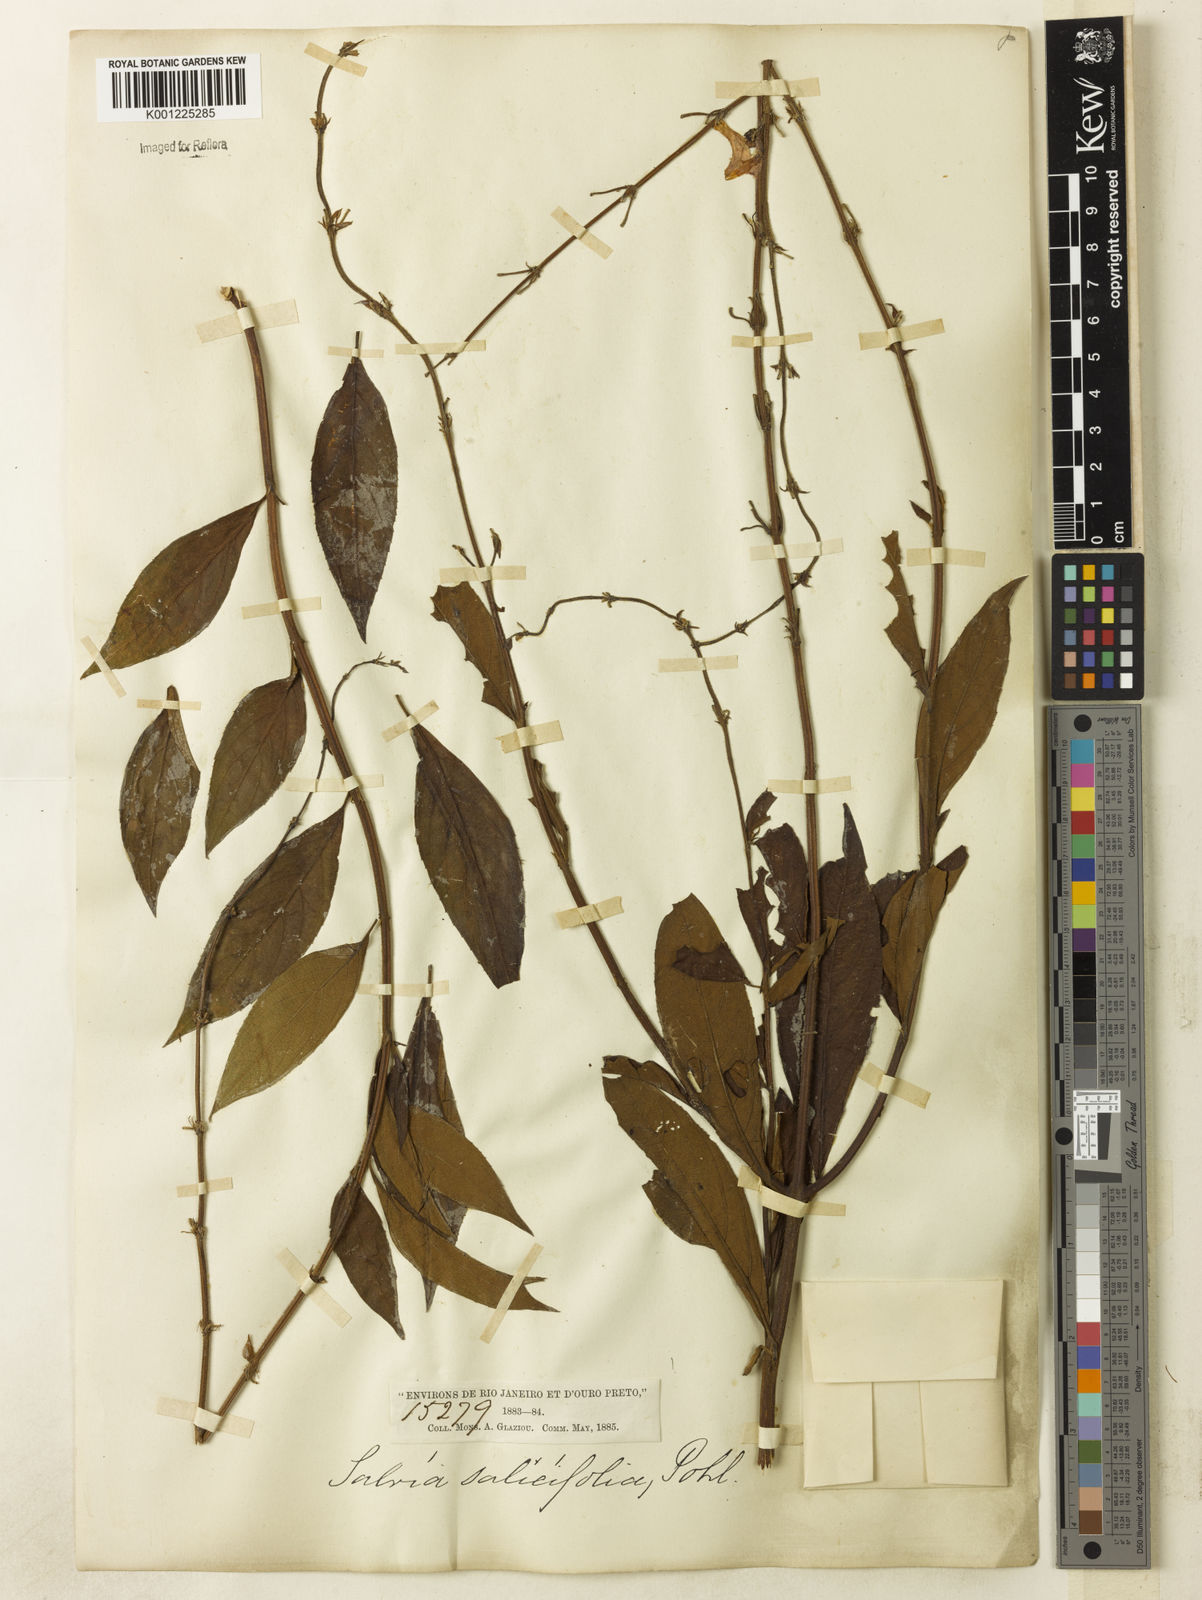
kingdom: Plantae
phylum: Tracheophyta
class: Magnoliopsida
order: Lamiales
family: Lamiaceae
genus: Salvia
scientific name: Salvia salicifolia
